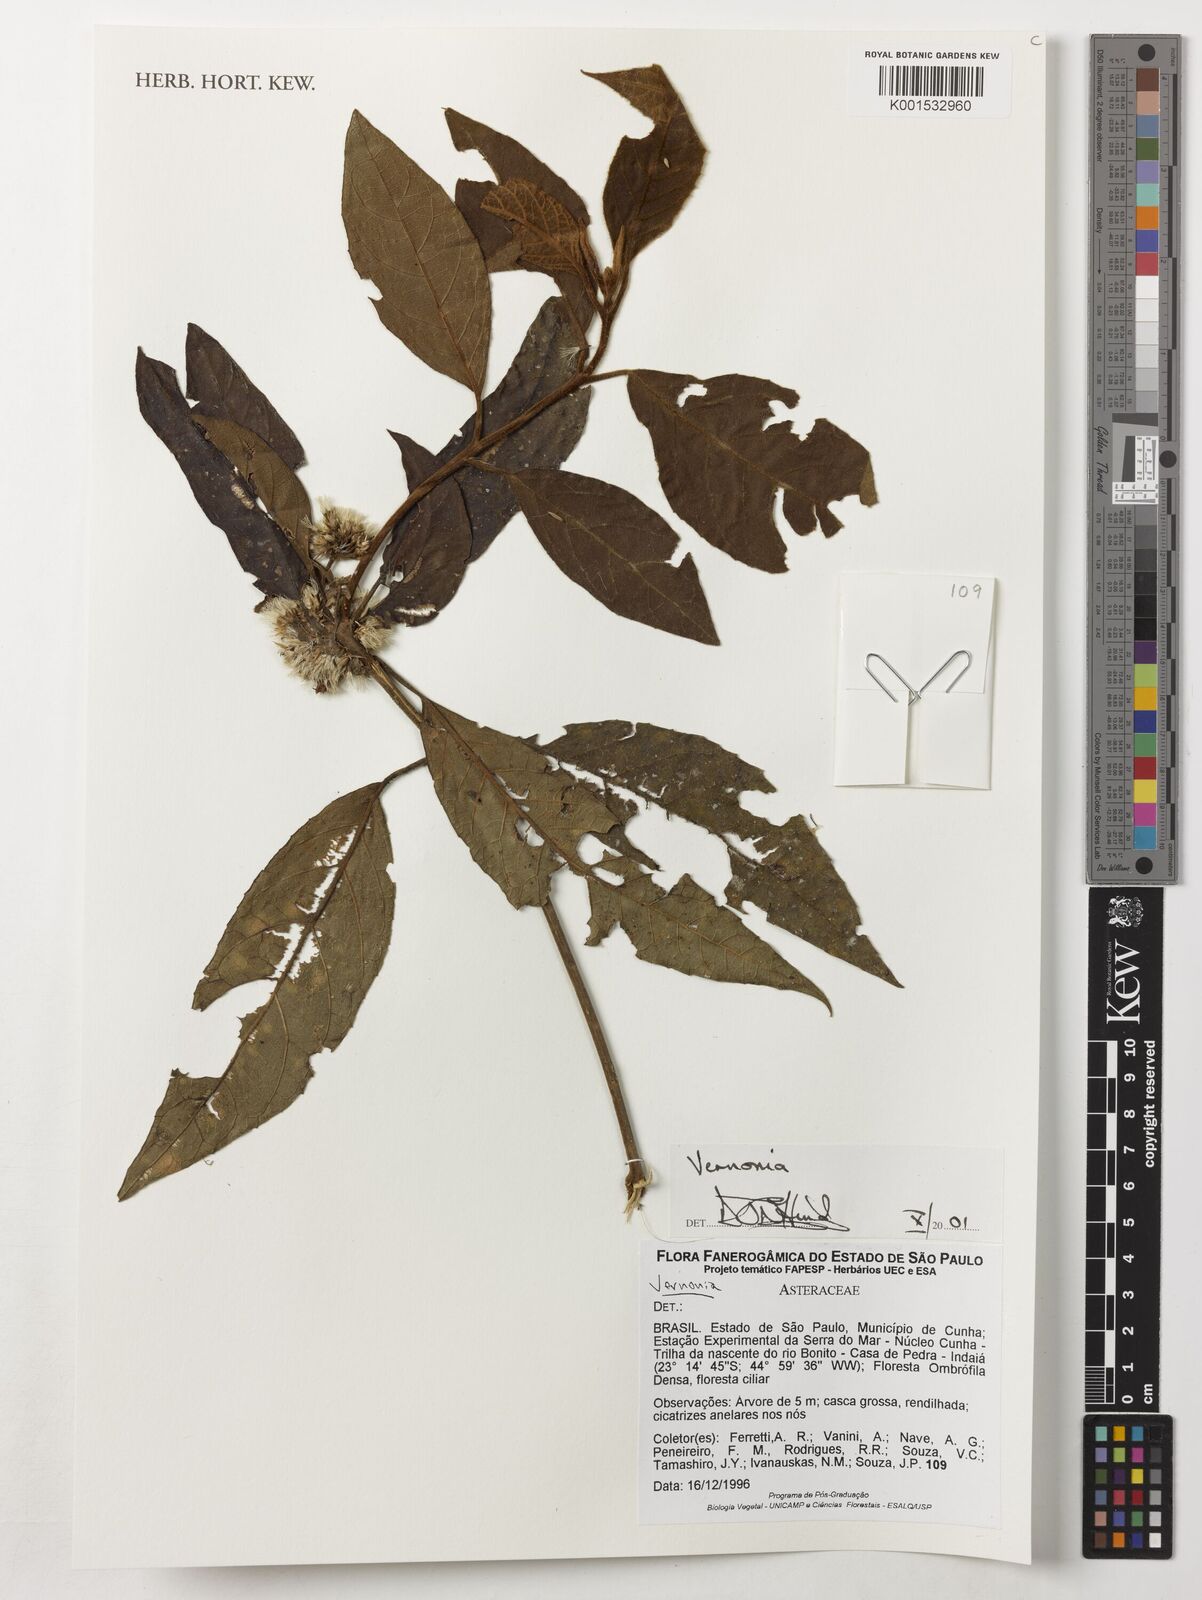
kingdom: Plantae
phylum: Tracheophyta
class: Magnoliopsida
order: Asterales
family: Asteraceae
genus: Vernonia
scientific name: Vernonia
